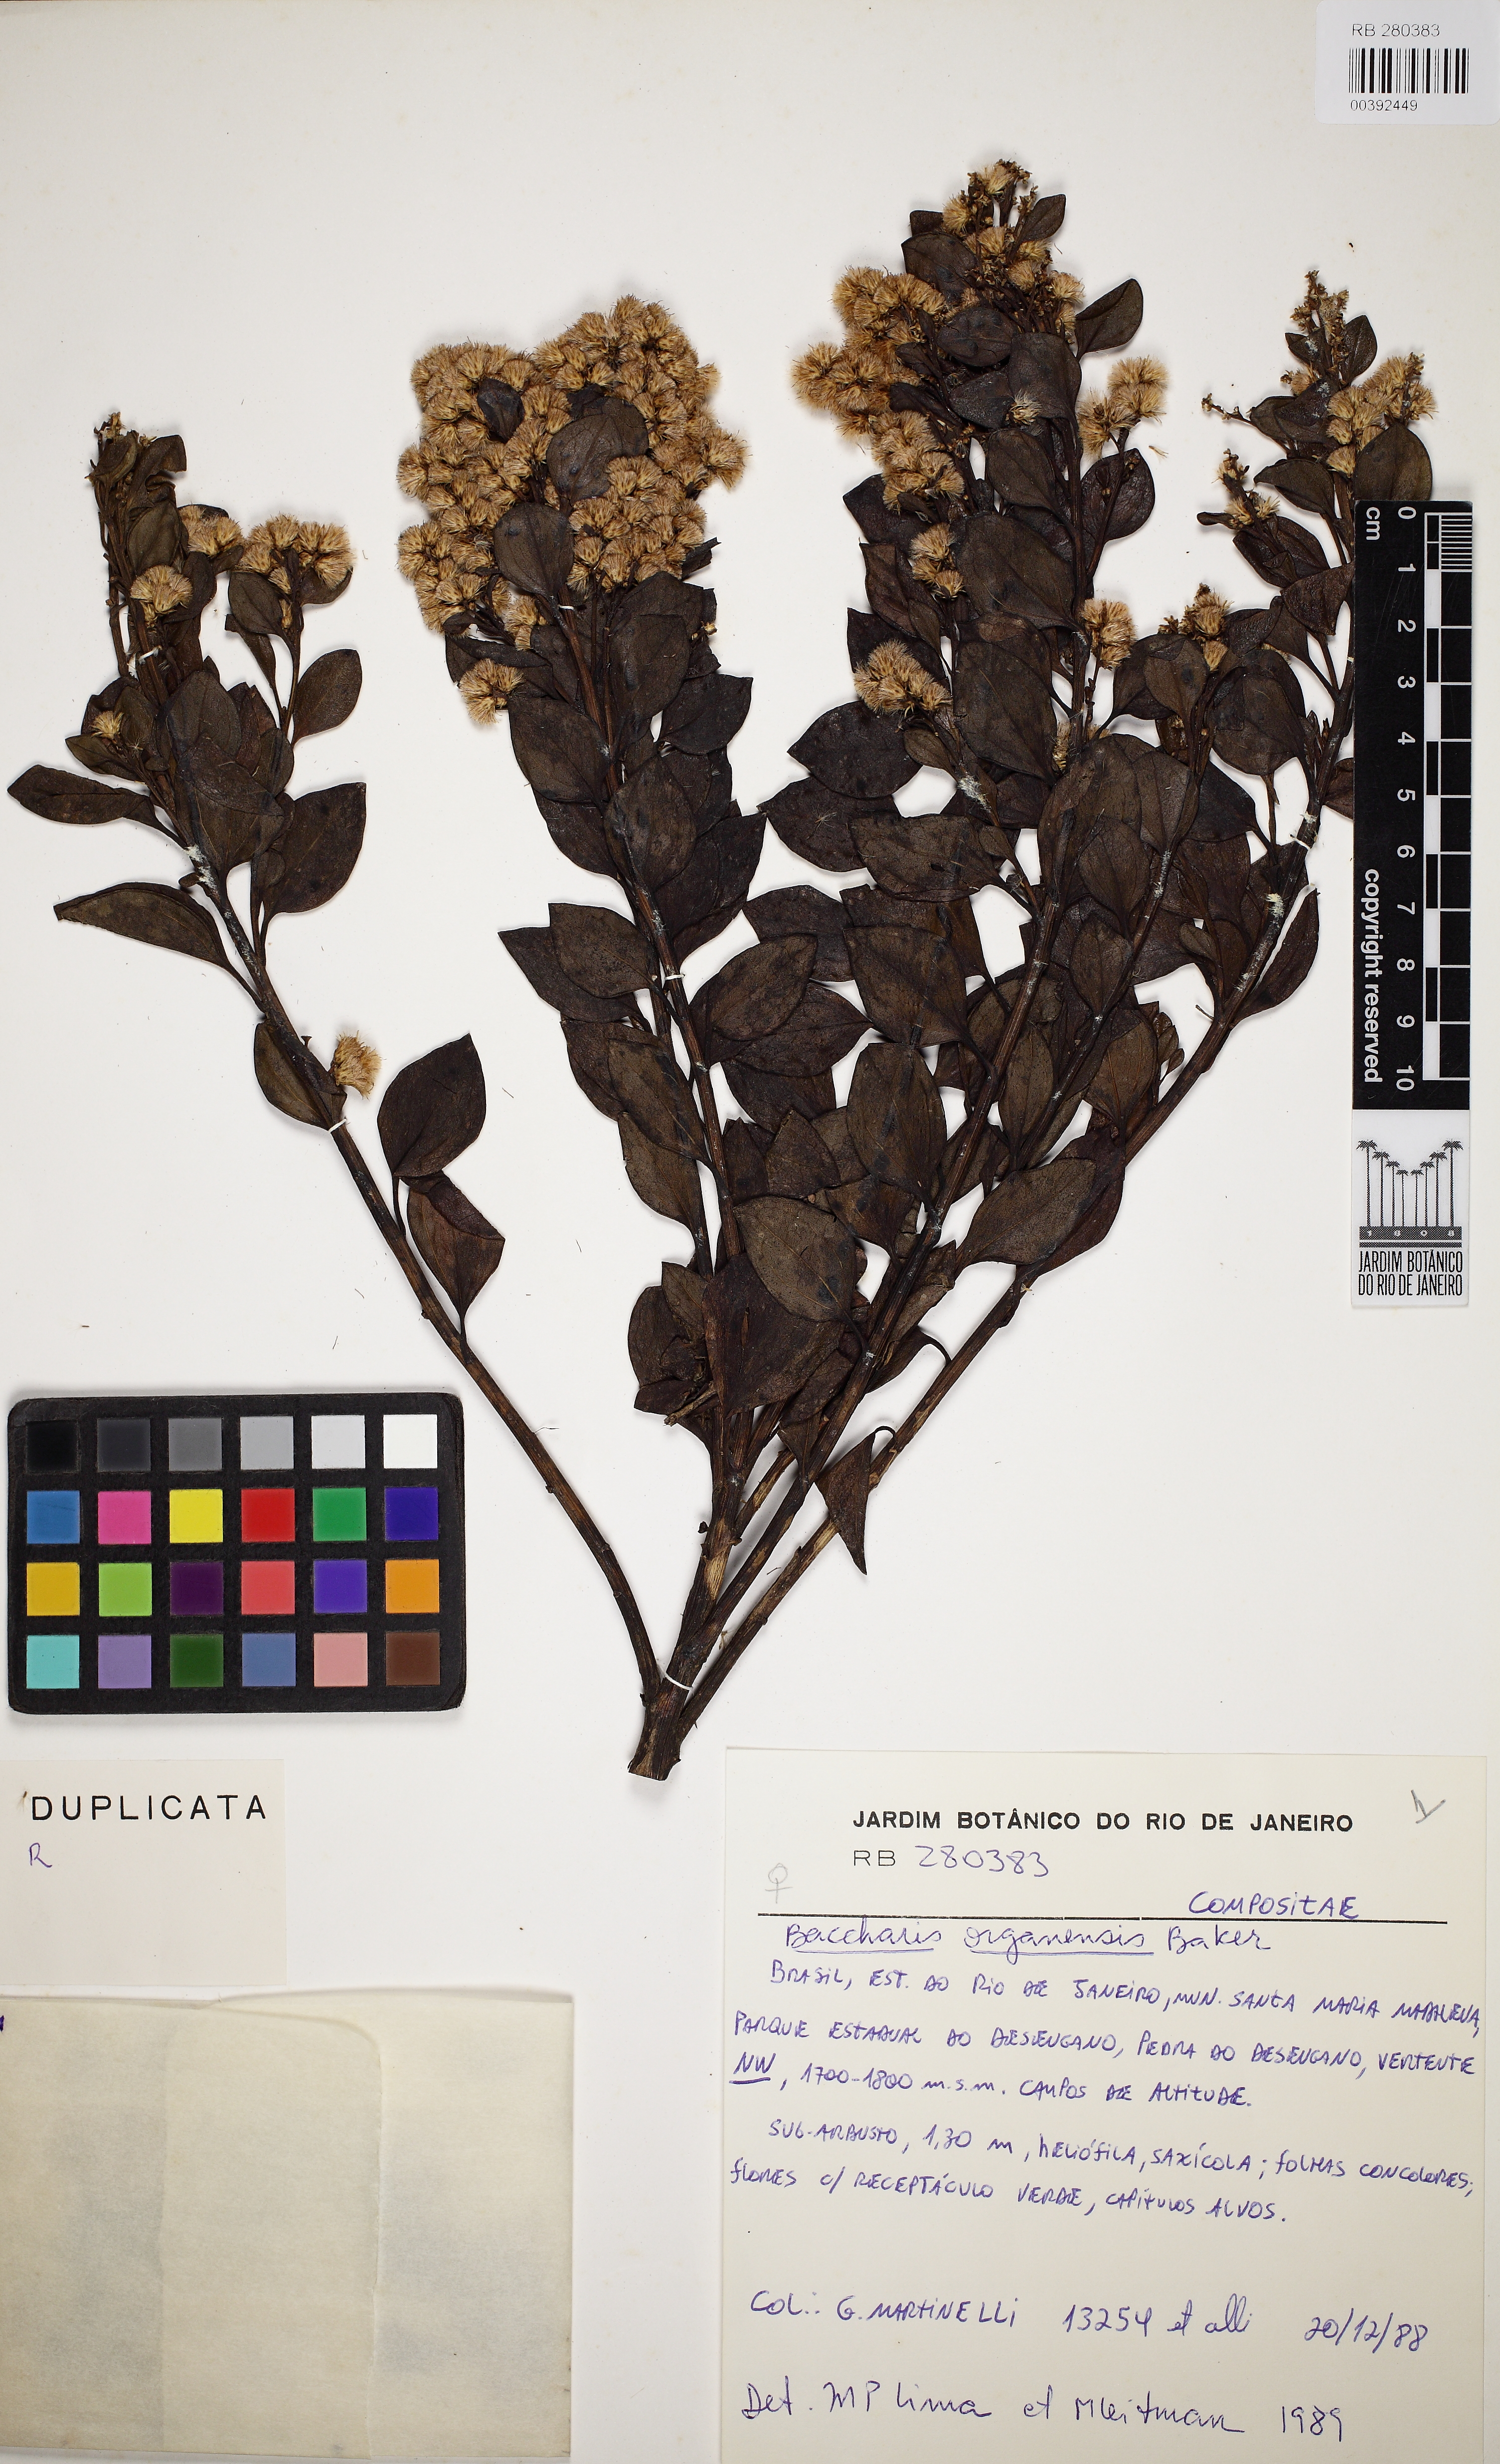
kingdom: Plantae
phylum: Tracheophyta
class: Magnoliopsida
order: Asterales
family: Asteraceae
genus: Baccharis
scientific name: Baccharis organensis
